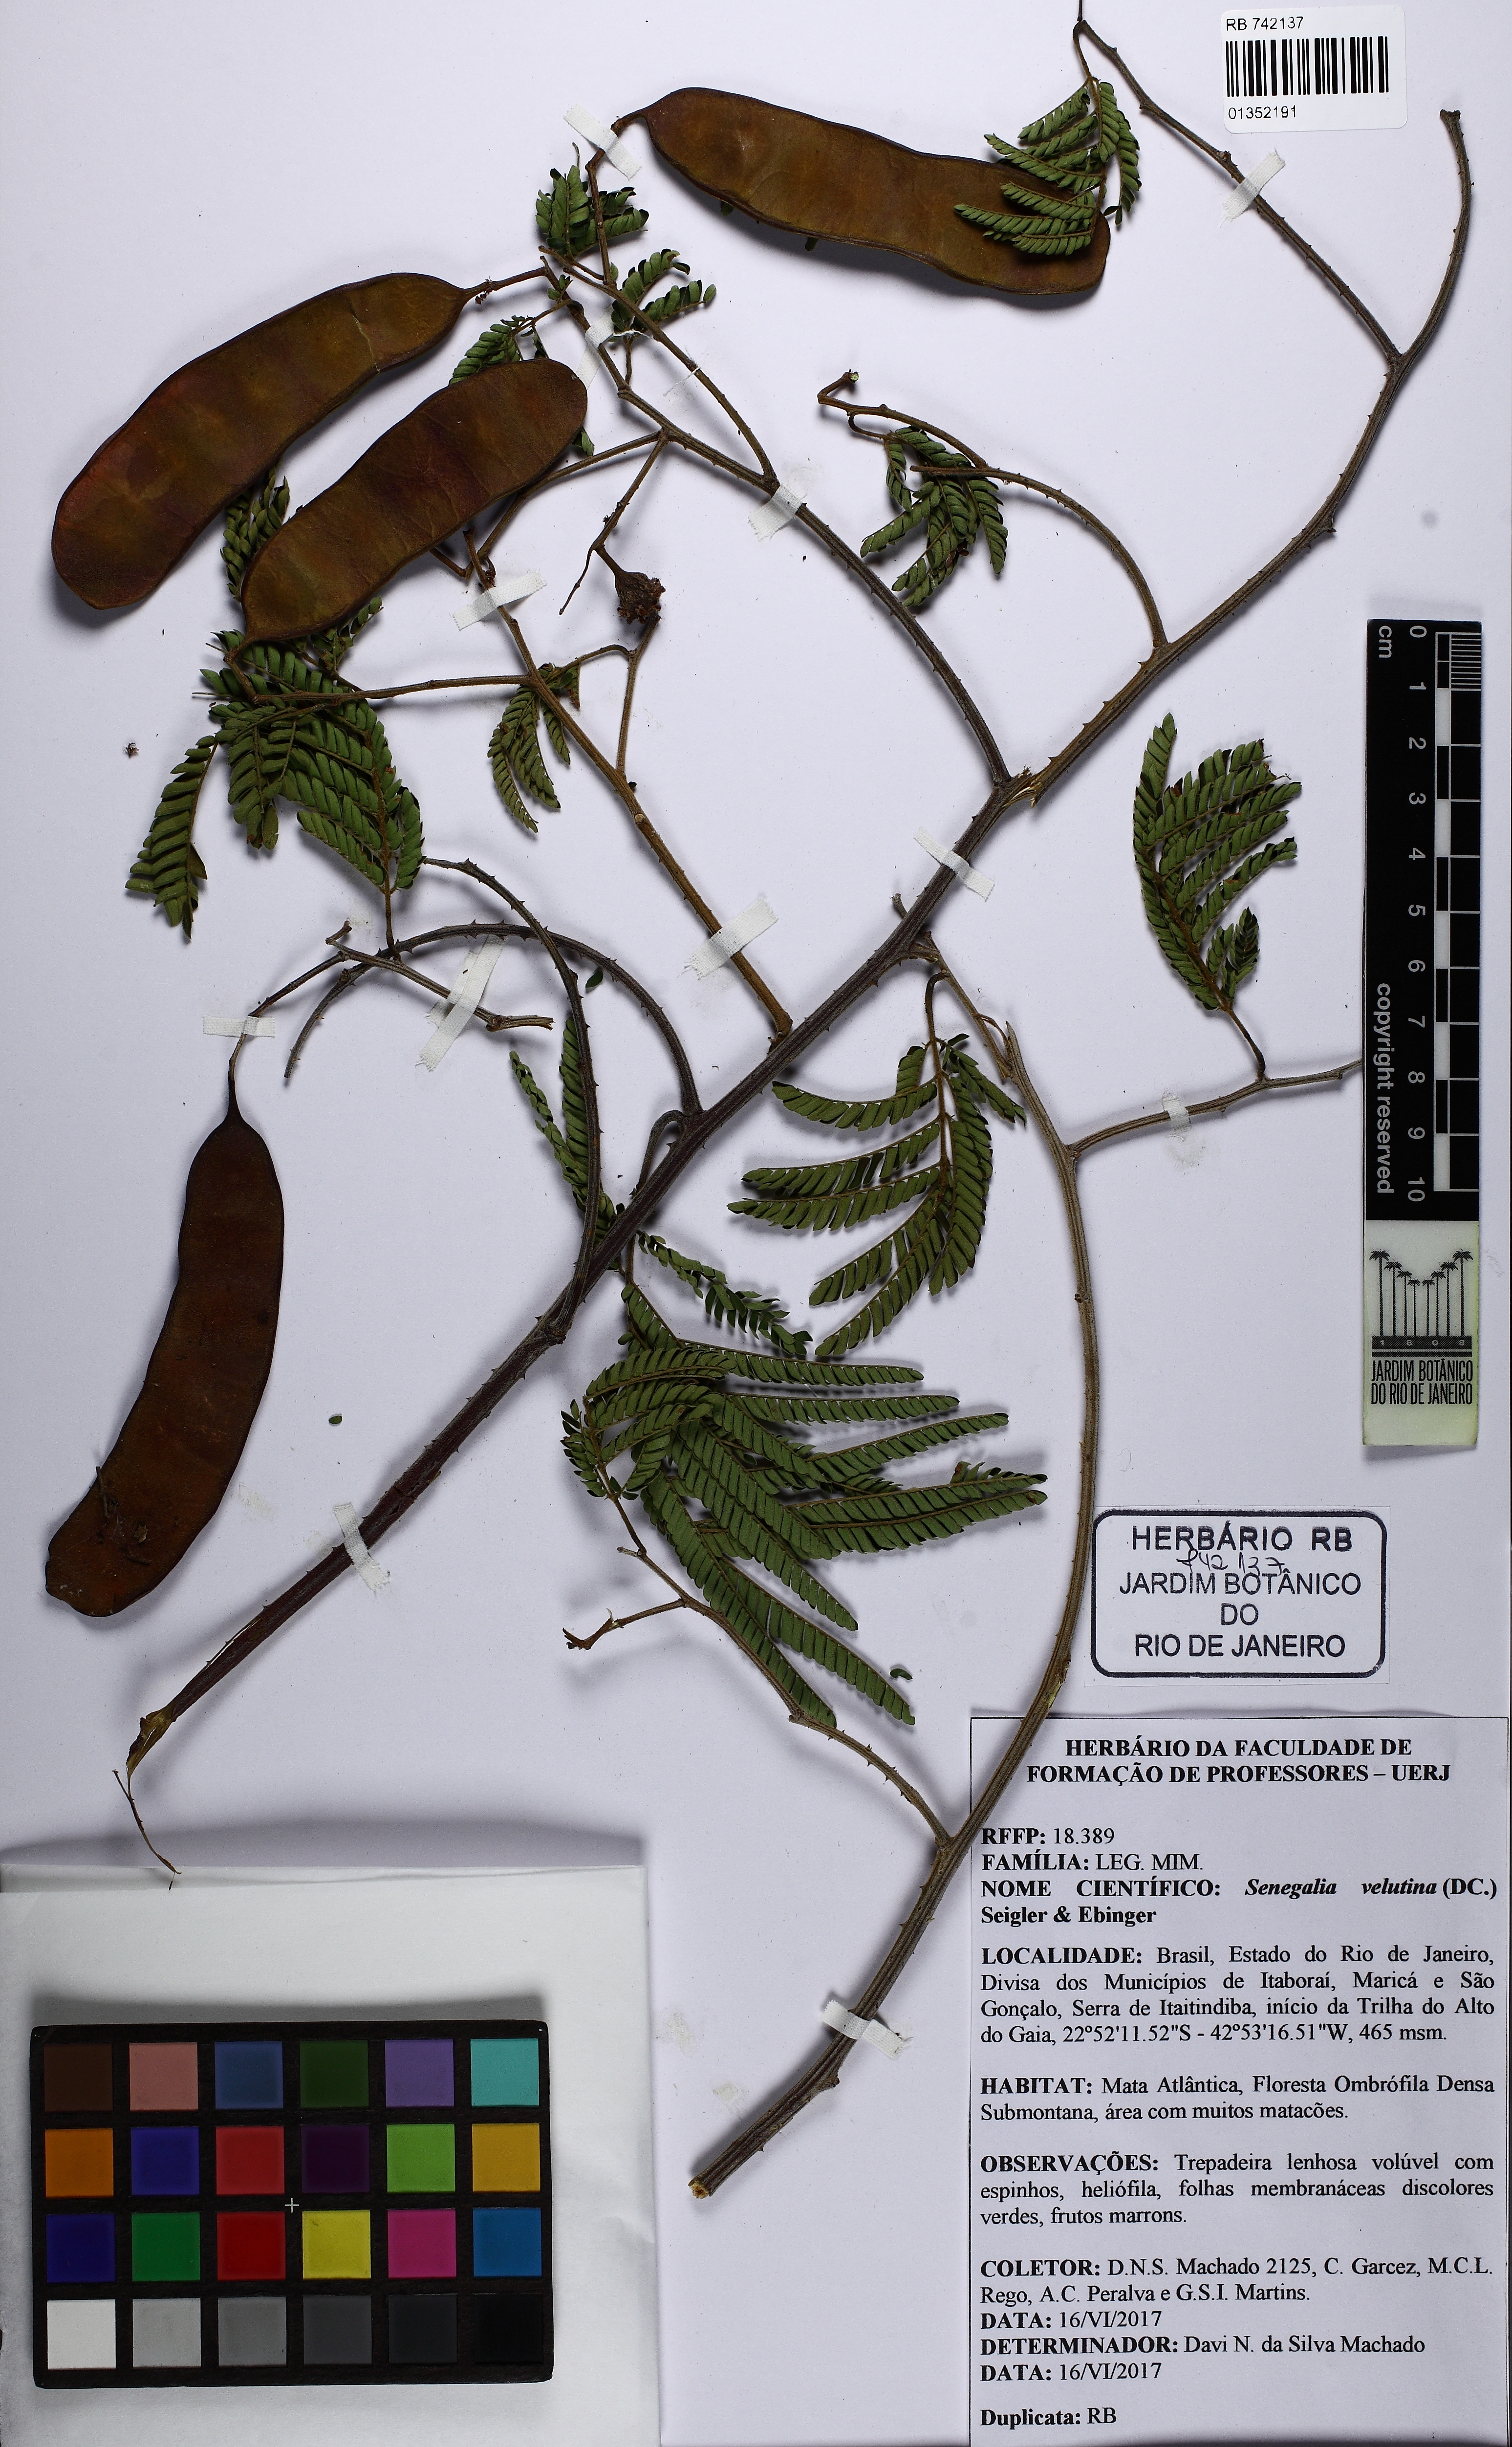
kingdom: Plantae
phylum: Tracheophyta
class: Magnoliopsida
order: Fabales
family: Fabaceae
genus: Senegalia
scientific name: Senegalia velutina
